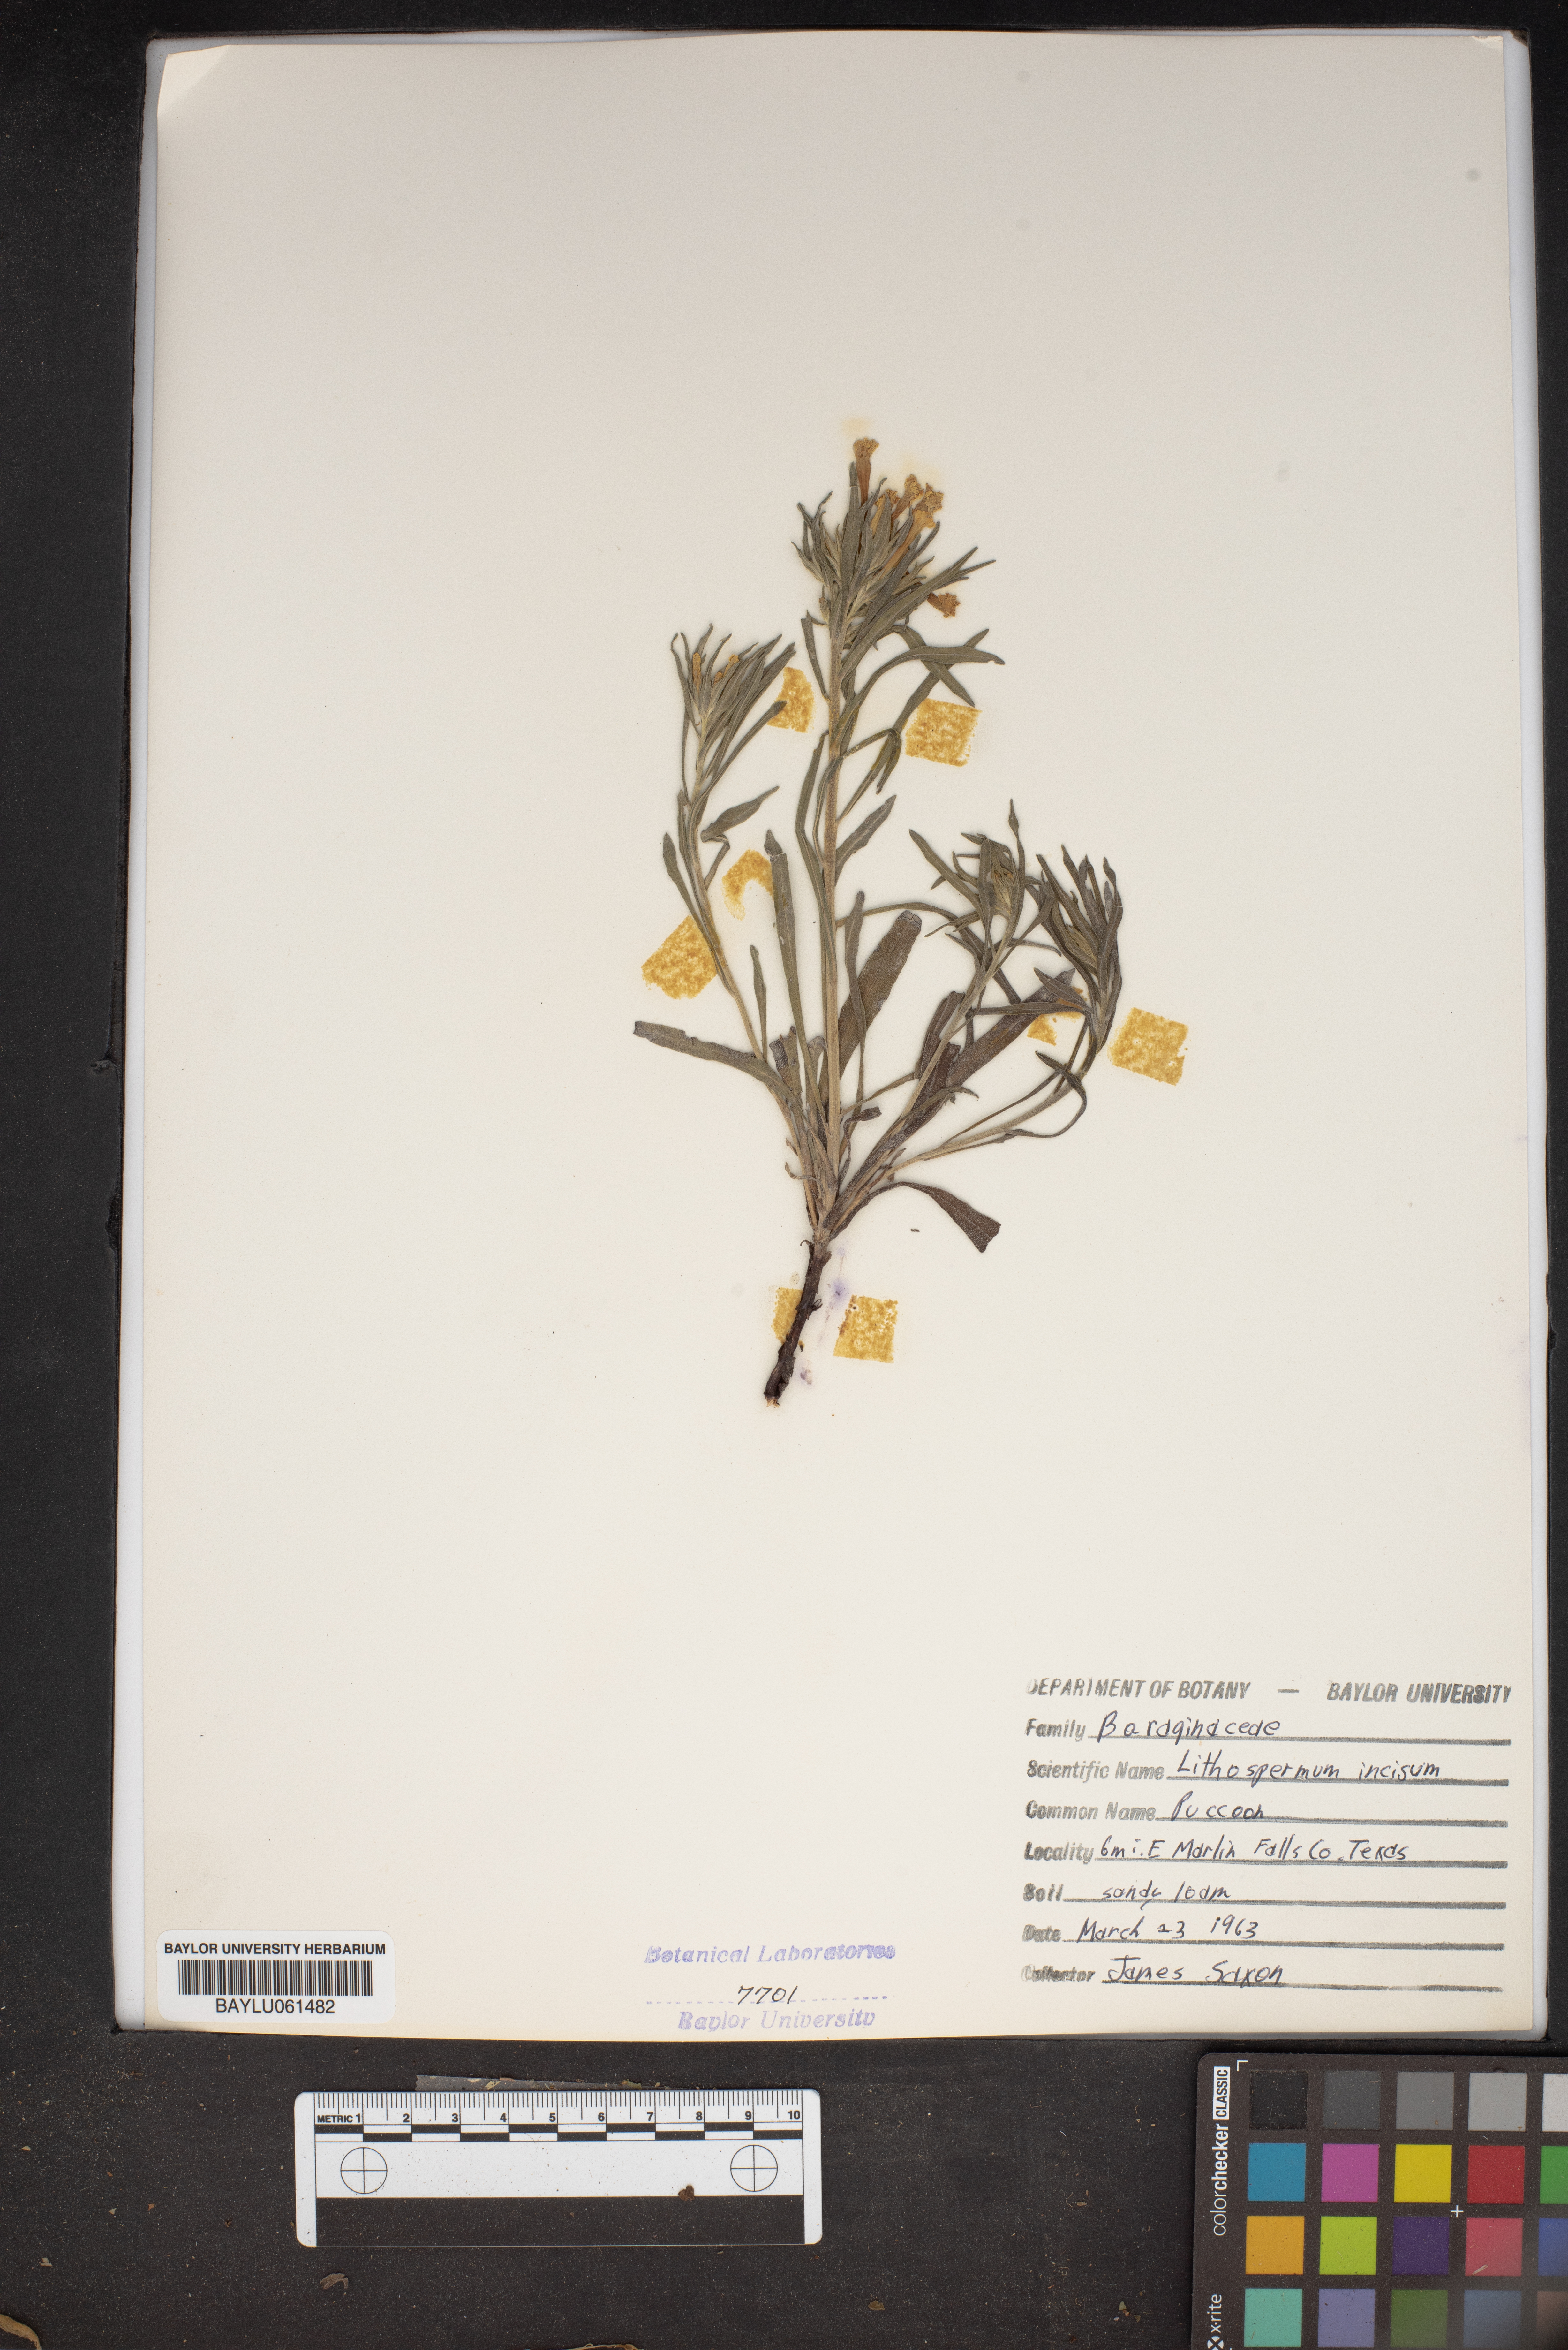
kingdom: Plantae
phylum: Tracheophyta
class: Magnoliopsida
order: Boraginales
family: Boraginaceae
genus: Lithospermum
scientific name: Lithospermum incisum
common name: Fringed gromwell
